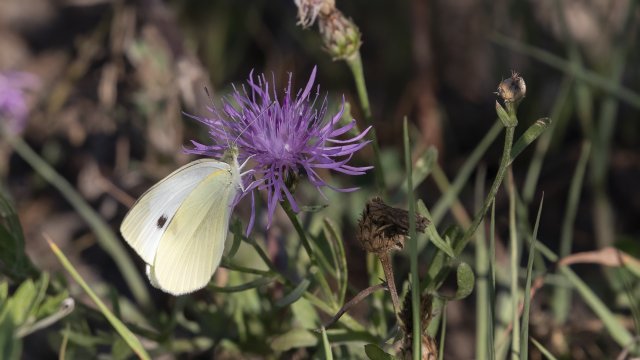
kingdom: Animalia
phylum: Arthropoda
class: Insecta
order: Lepidoptera
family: Pieridae
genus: Pieris
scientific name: Pieris rapae
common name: Cabbage White
